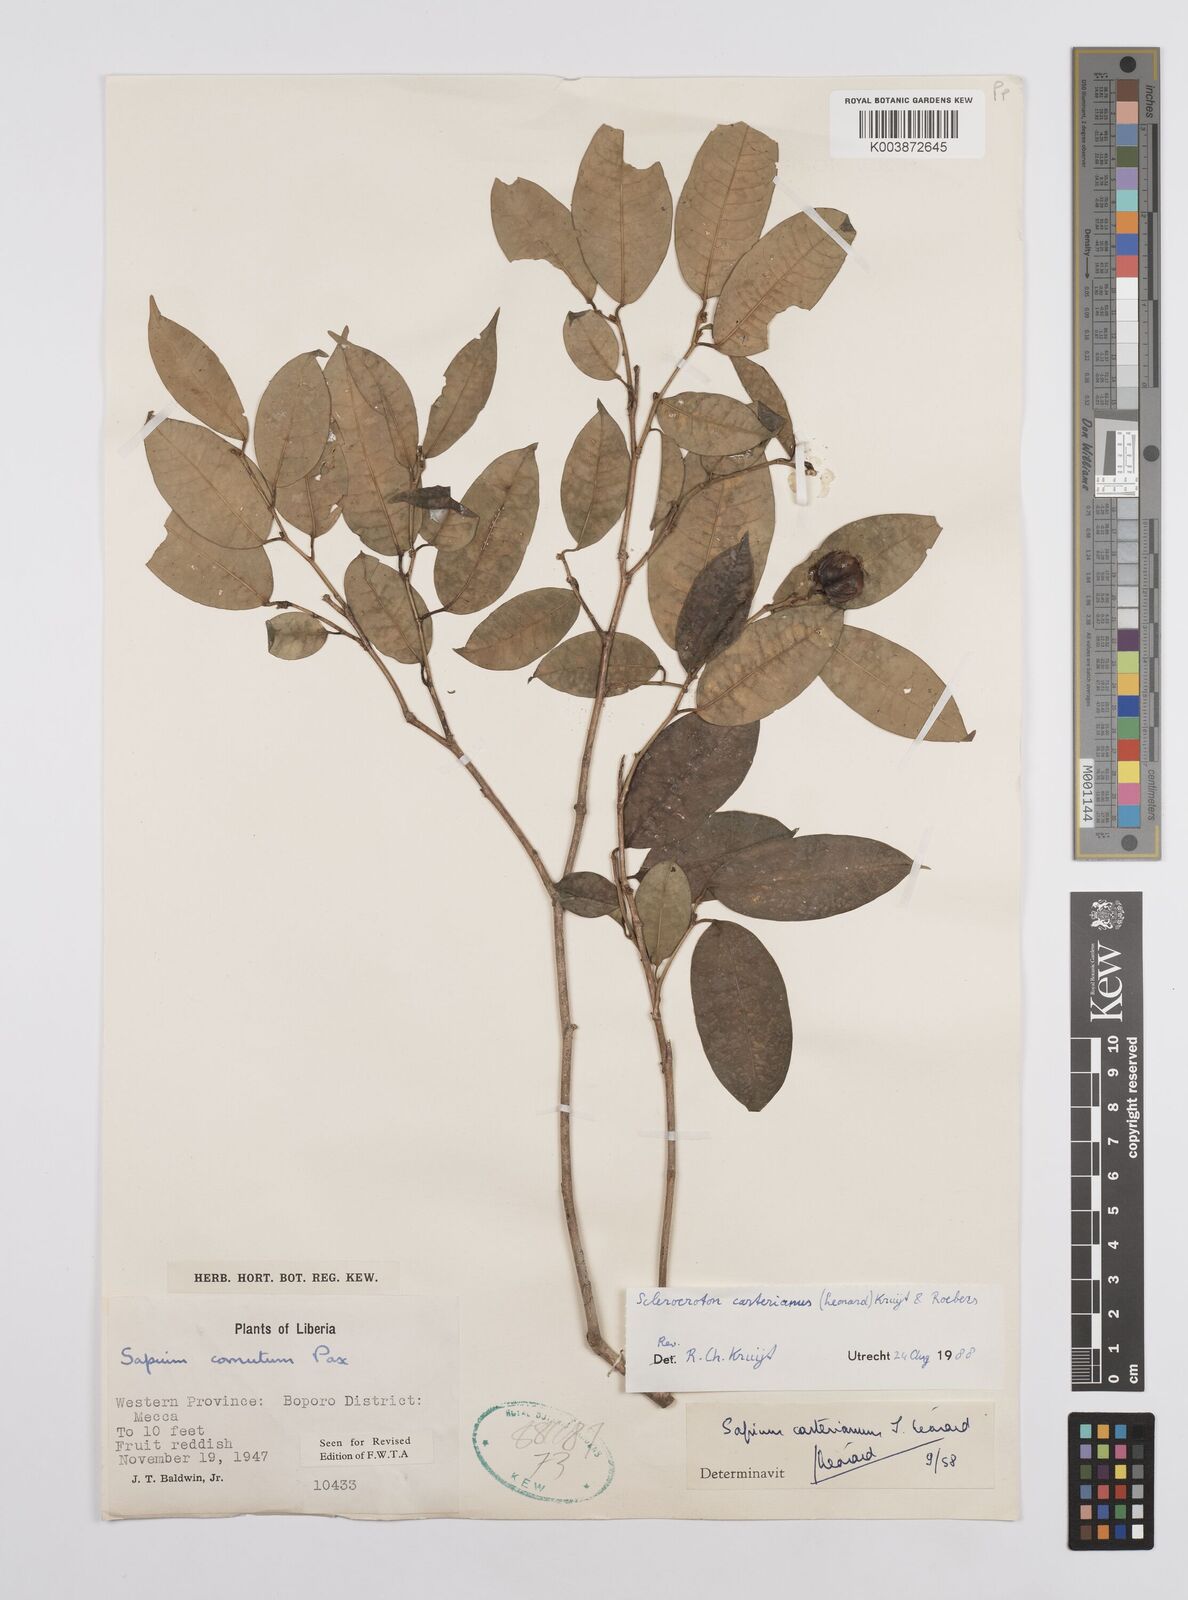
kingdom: Plantae
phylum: Tracheophyta
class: Magnoliopsida
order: Malpighiales
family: Euphorbiaceae
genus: Sclerocroton
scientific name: Sclerocroton carterianus
